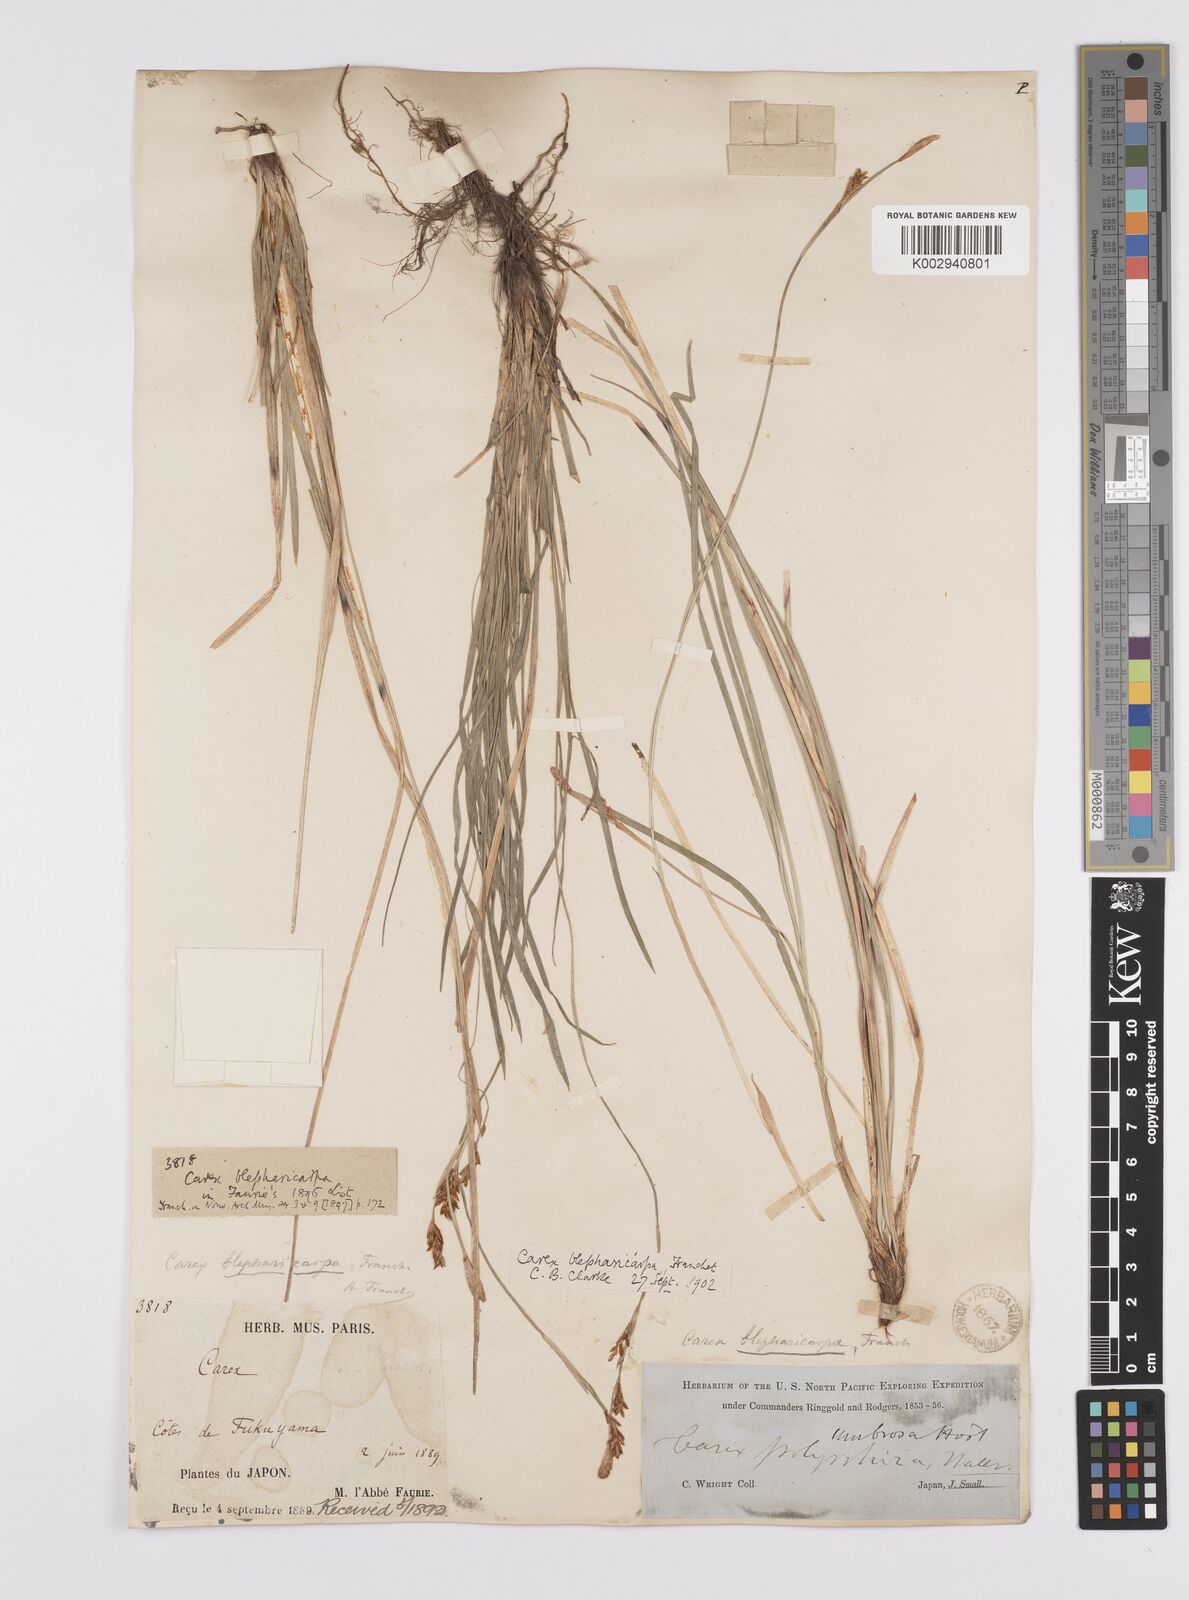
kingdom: Plantae
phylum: Tracheophyta
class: Liliopsida
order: Poales
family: Cyperaceae
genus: Carex
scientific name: Carex blepharicarpa
